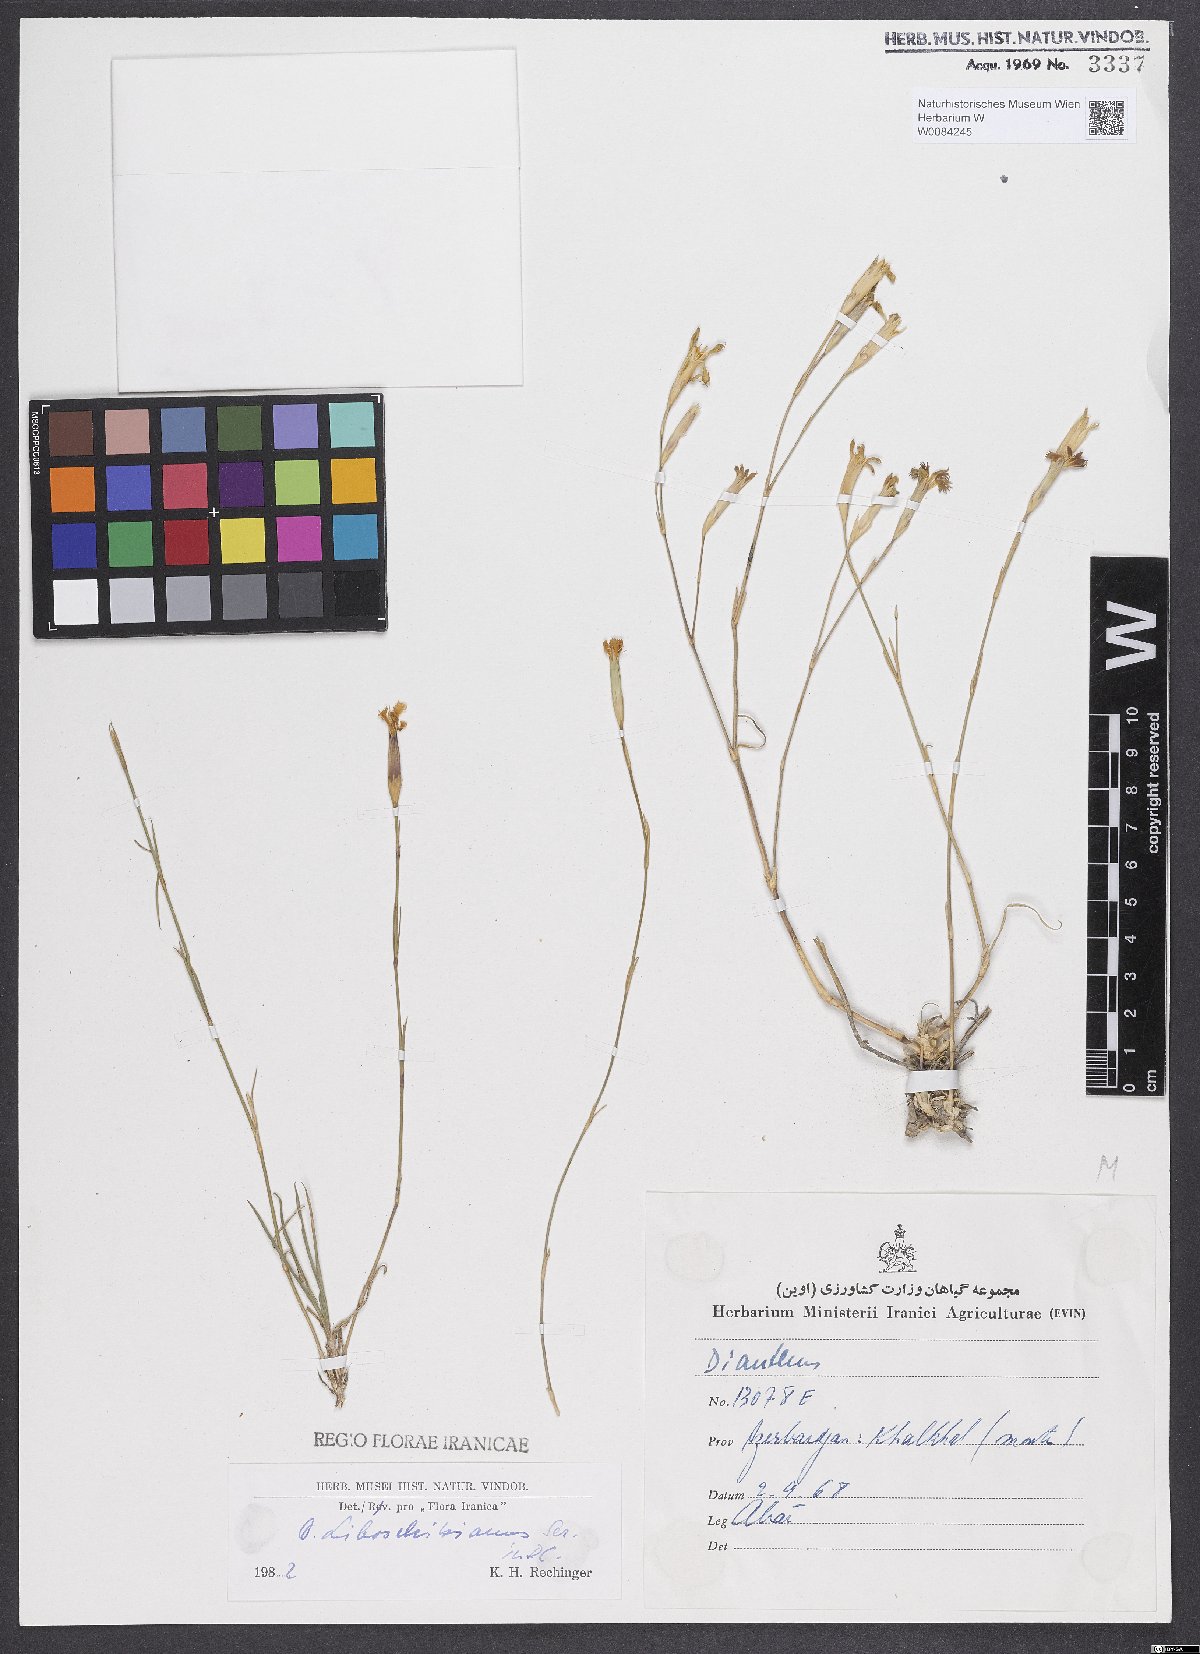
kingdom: Plantae
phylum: Tracheophyta
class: Magnoliopsida
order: Caryophyllales
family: Caryophyllaceae
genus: Dianthus
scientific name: Dianthus cretaceus
